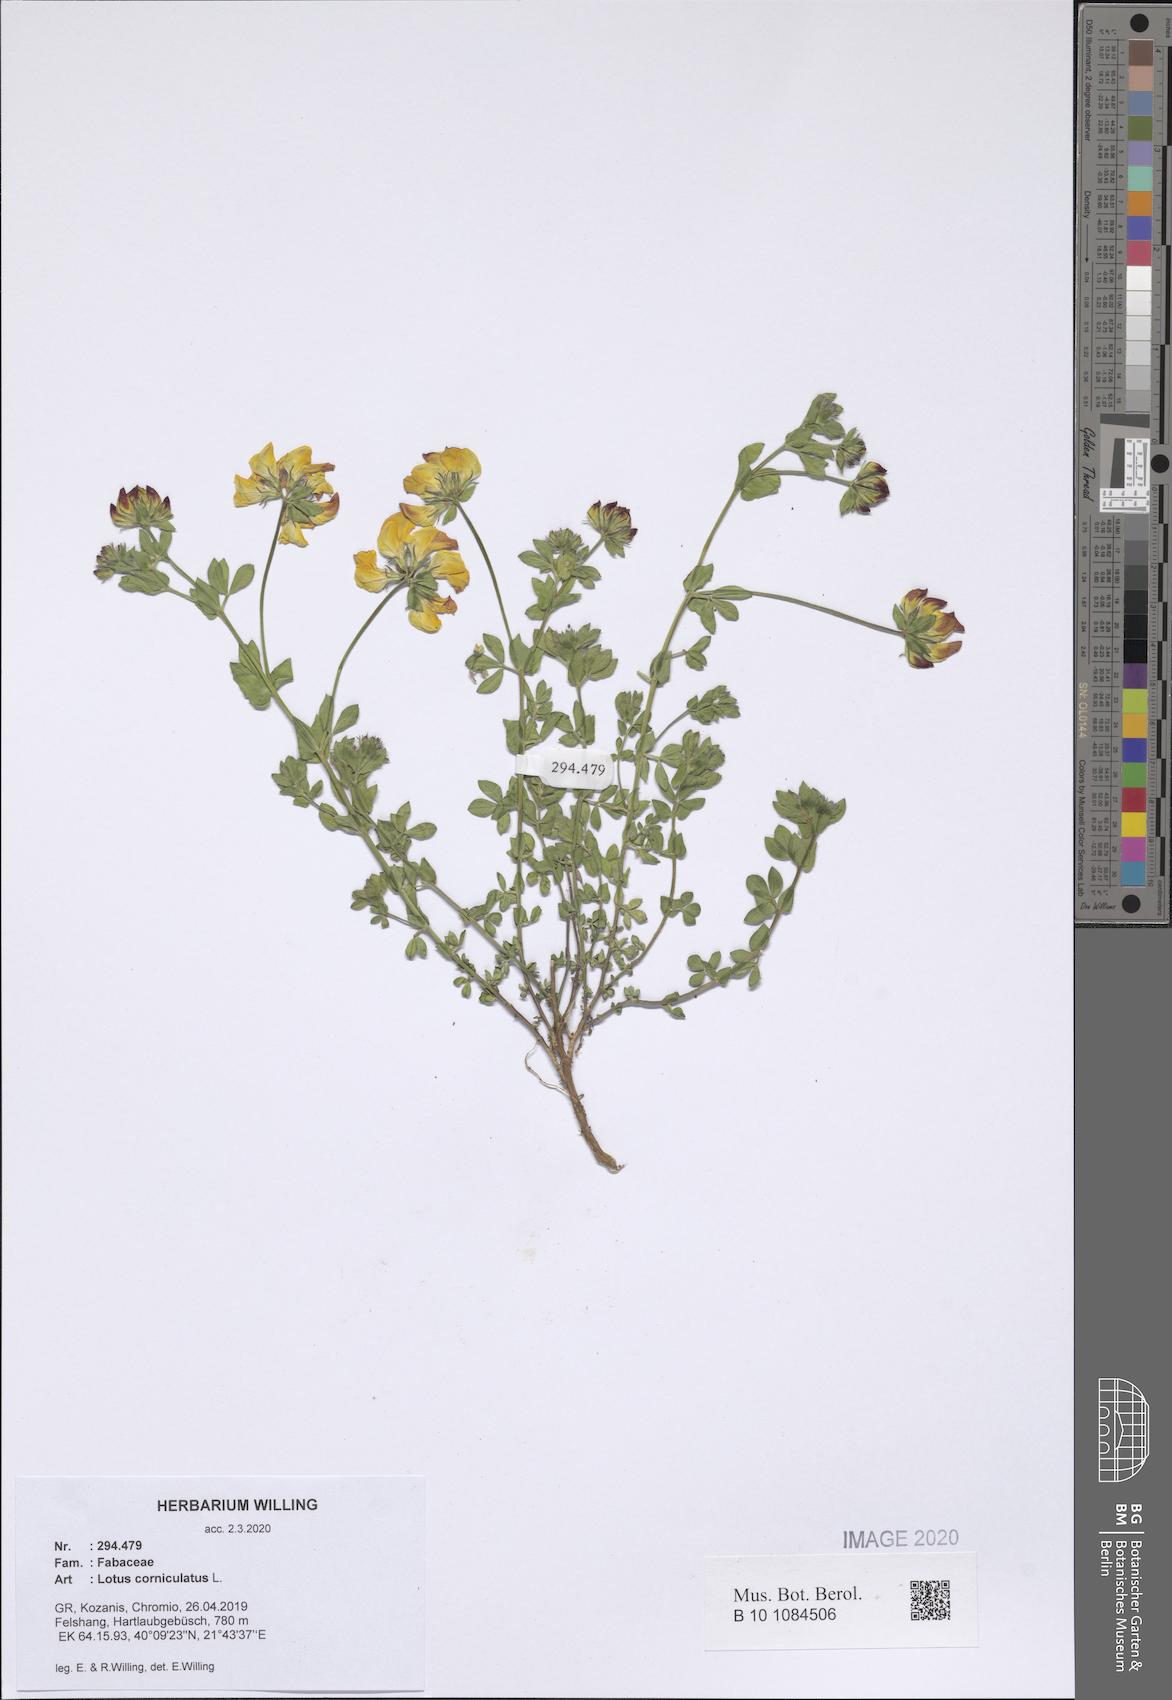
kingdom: Plantae
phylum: Tracheophyta
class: Magnoliopsida
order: Fabales
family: Fabaceae
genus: Lotus
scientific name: Lotus corniculatus
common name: Common bird's-foot-trefoil
